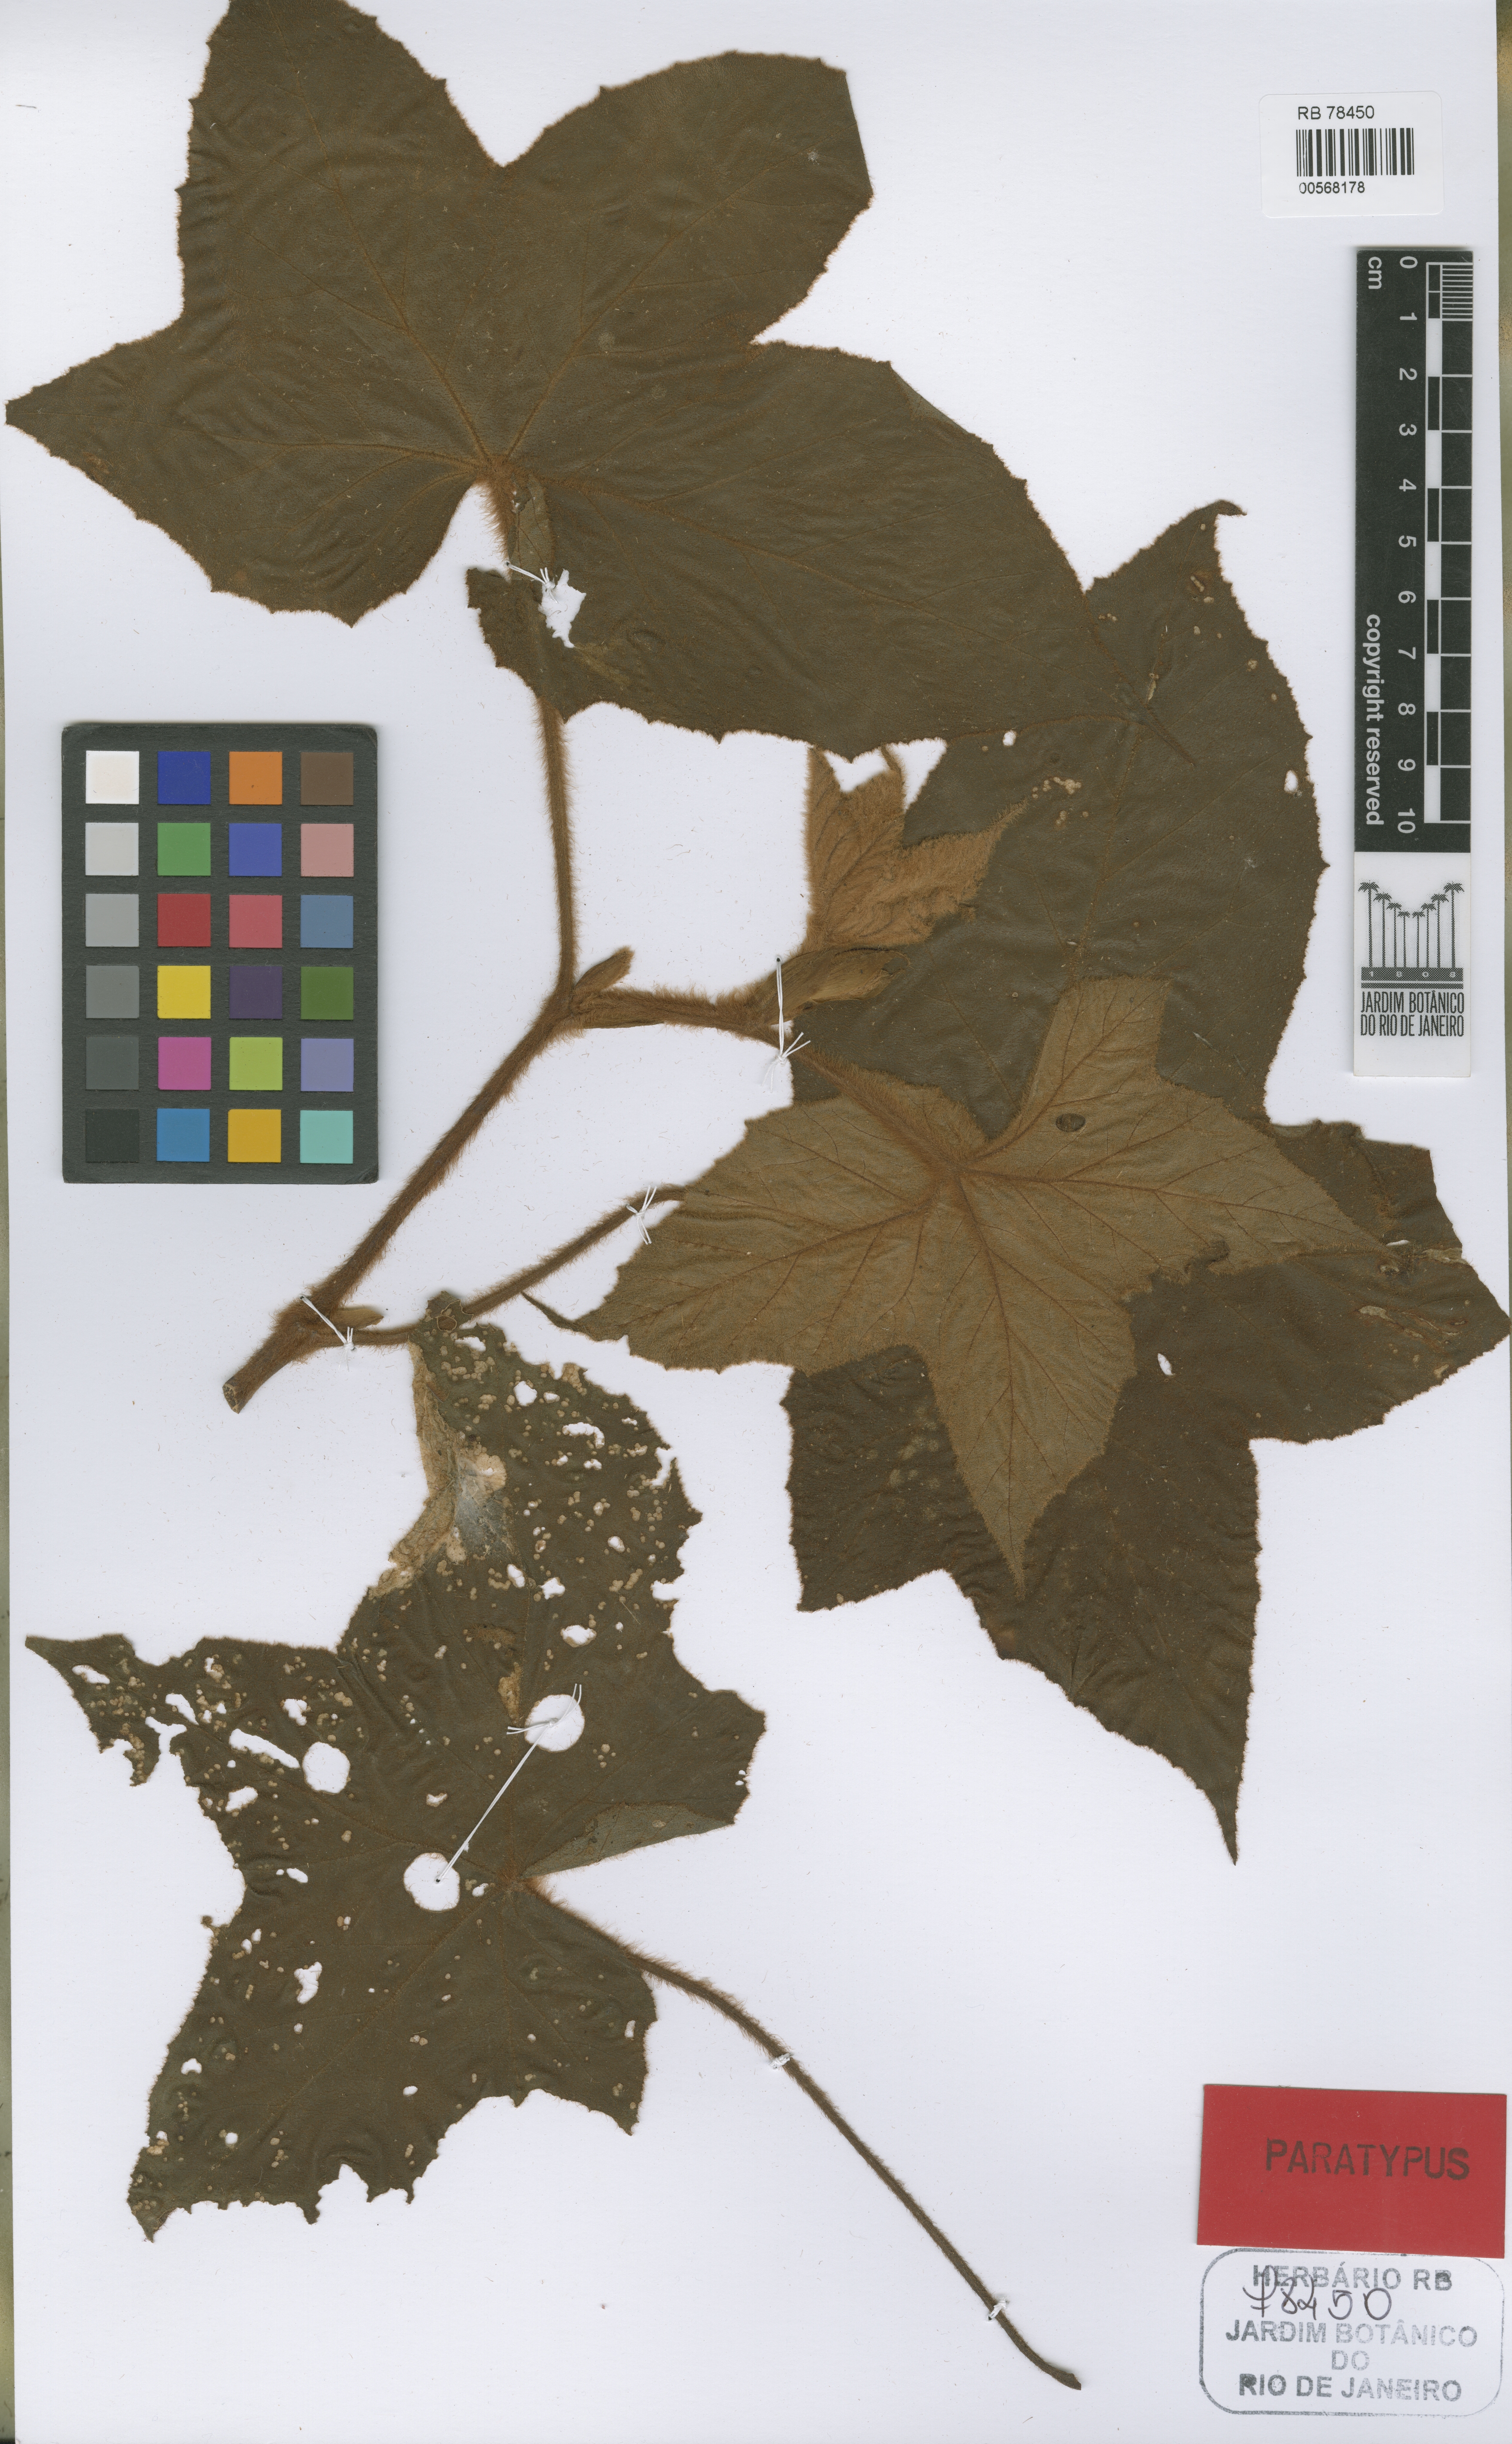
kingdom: Plantae
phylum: Tracheophyta
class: Magnoliopsida
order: Cucurbitales
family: Begoniaceae
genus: Begonia
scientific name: Begonia jocelinoi
